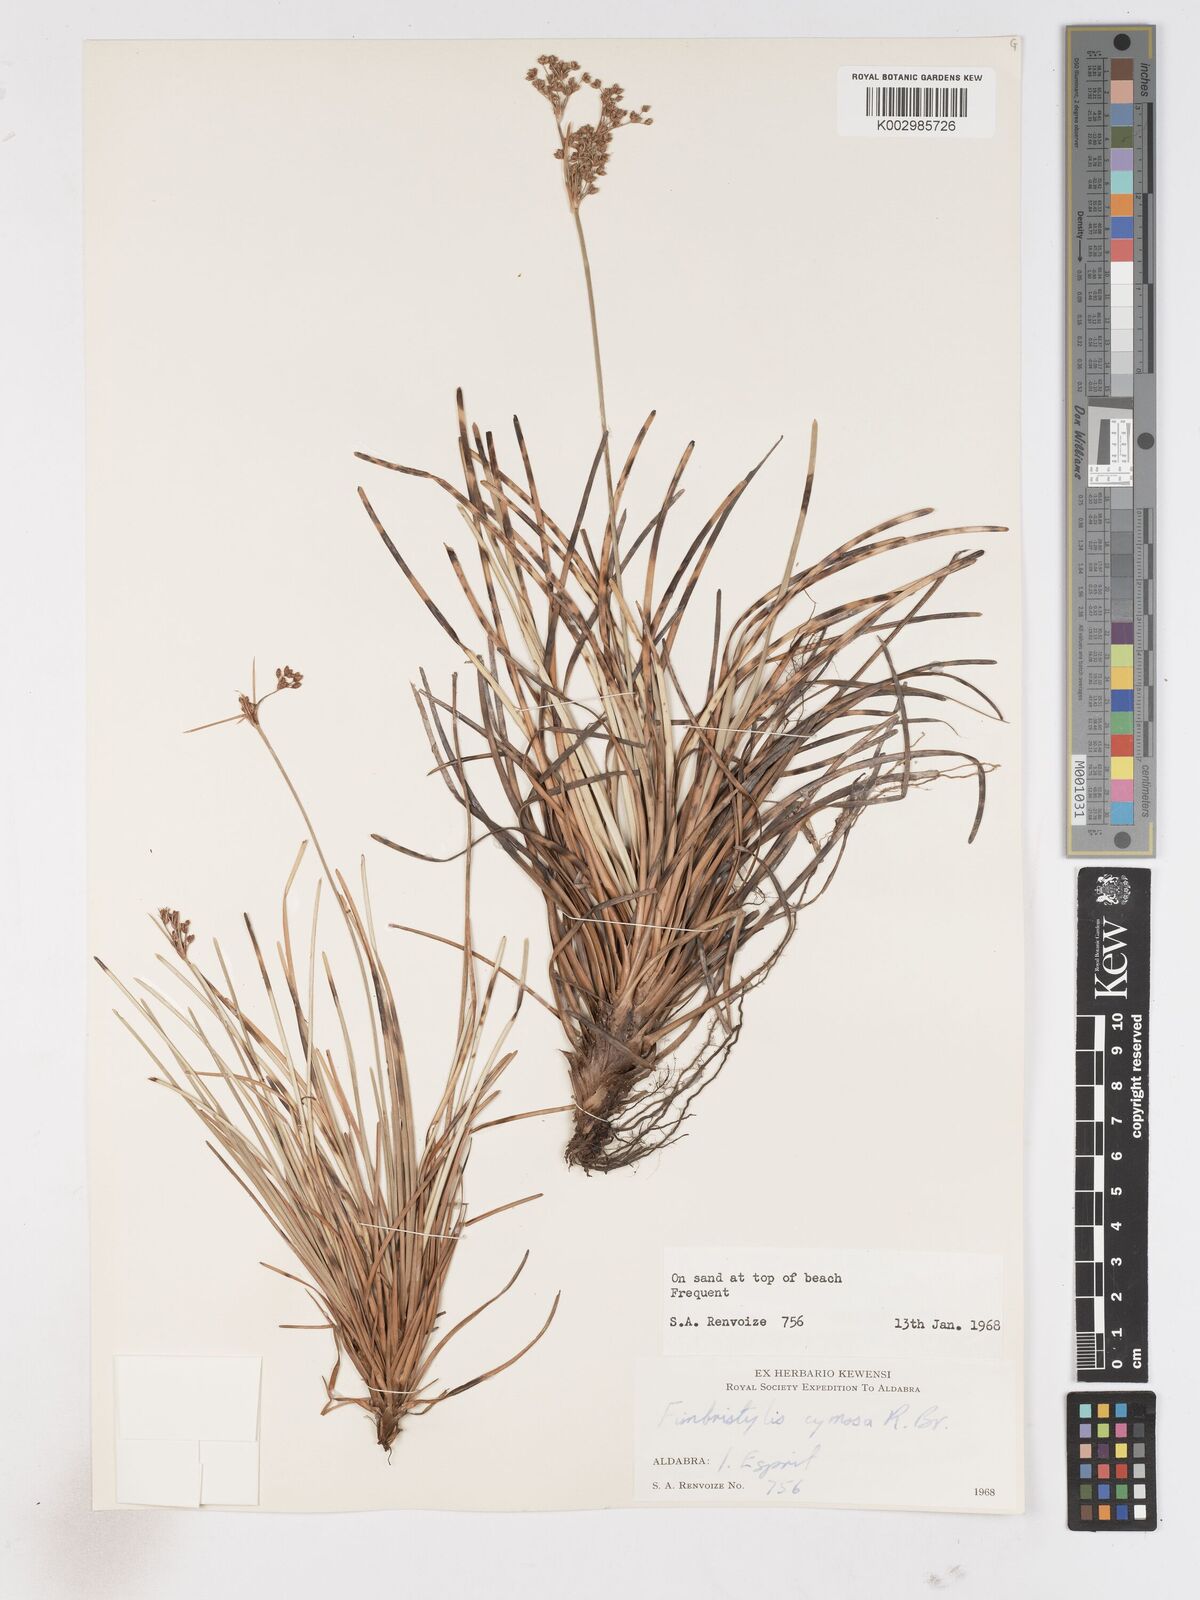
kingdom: Plantae
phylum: Tracheophyta
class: Liliopsida
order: Poales
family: Cyperaceae
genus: Fimbristylis
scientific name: Fimbristylis cymosa
